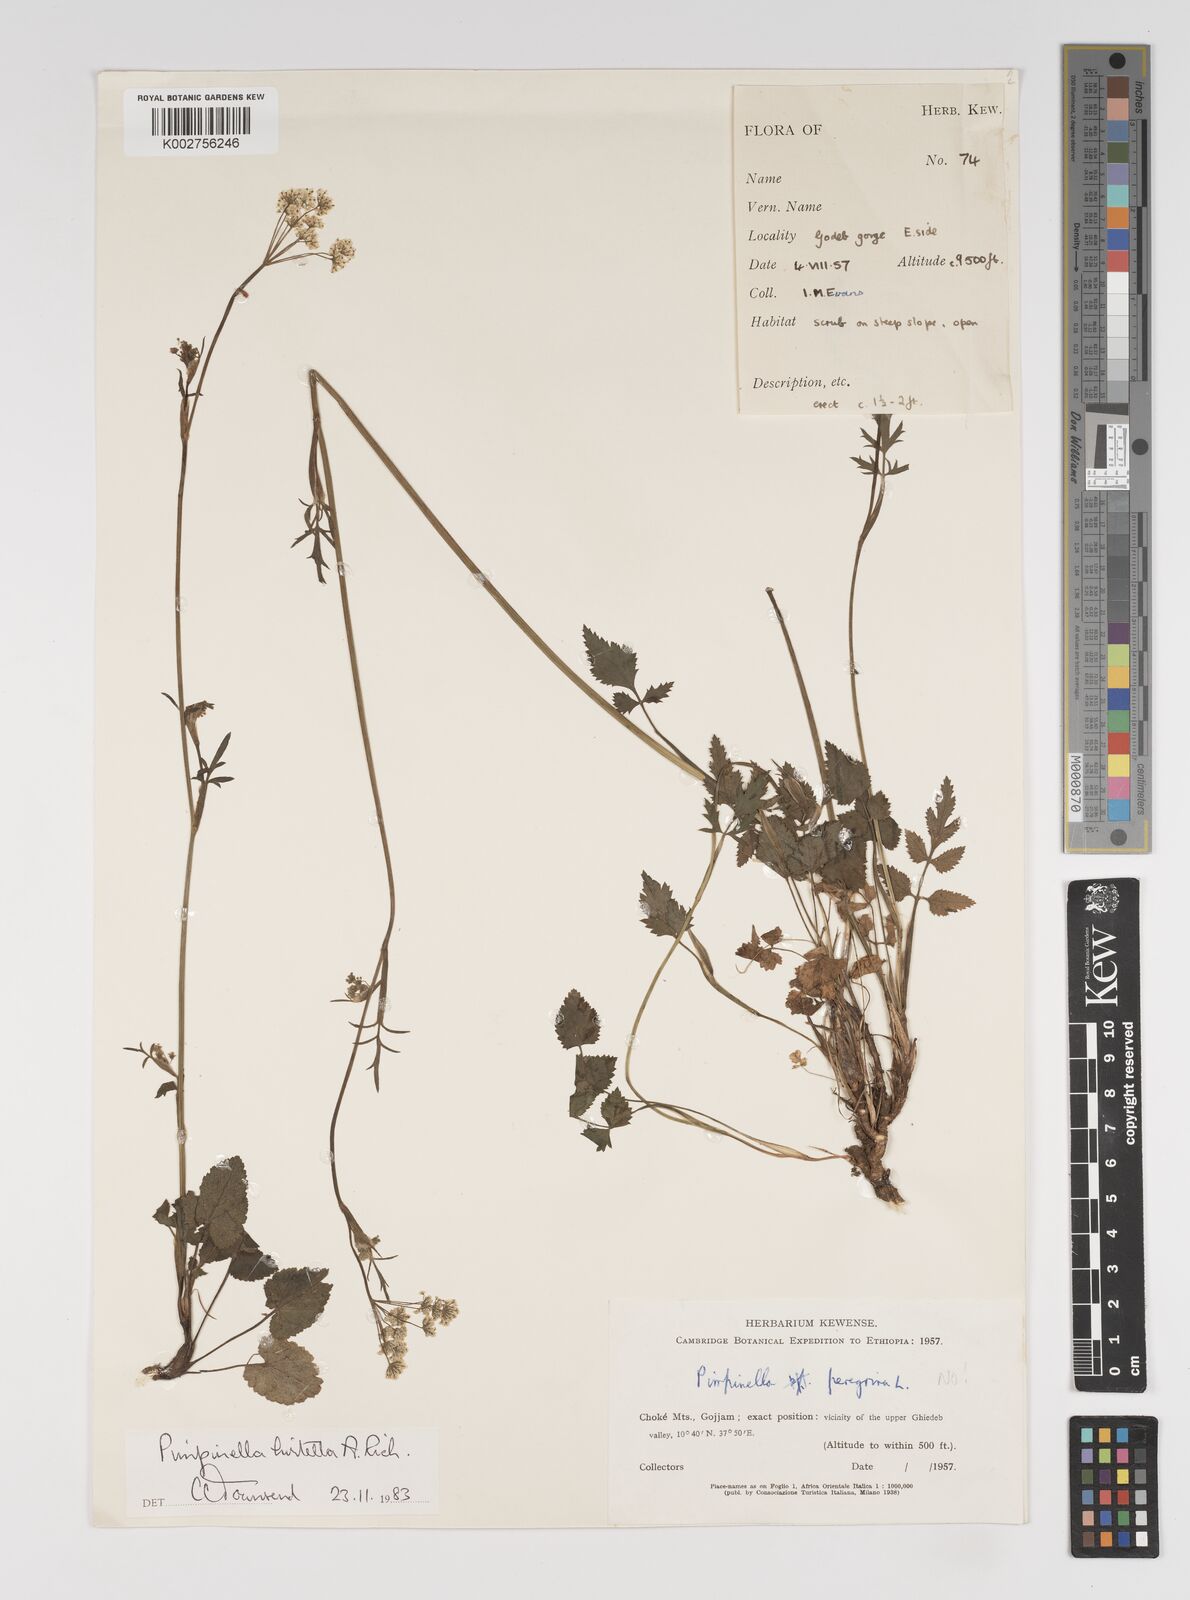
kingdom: Plantae
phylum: Tracheophyta
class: Magnoliopsida
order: Apiales
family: Apiaceae
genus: Pimpinella
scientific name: Pimpinella hirtella
